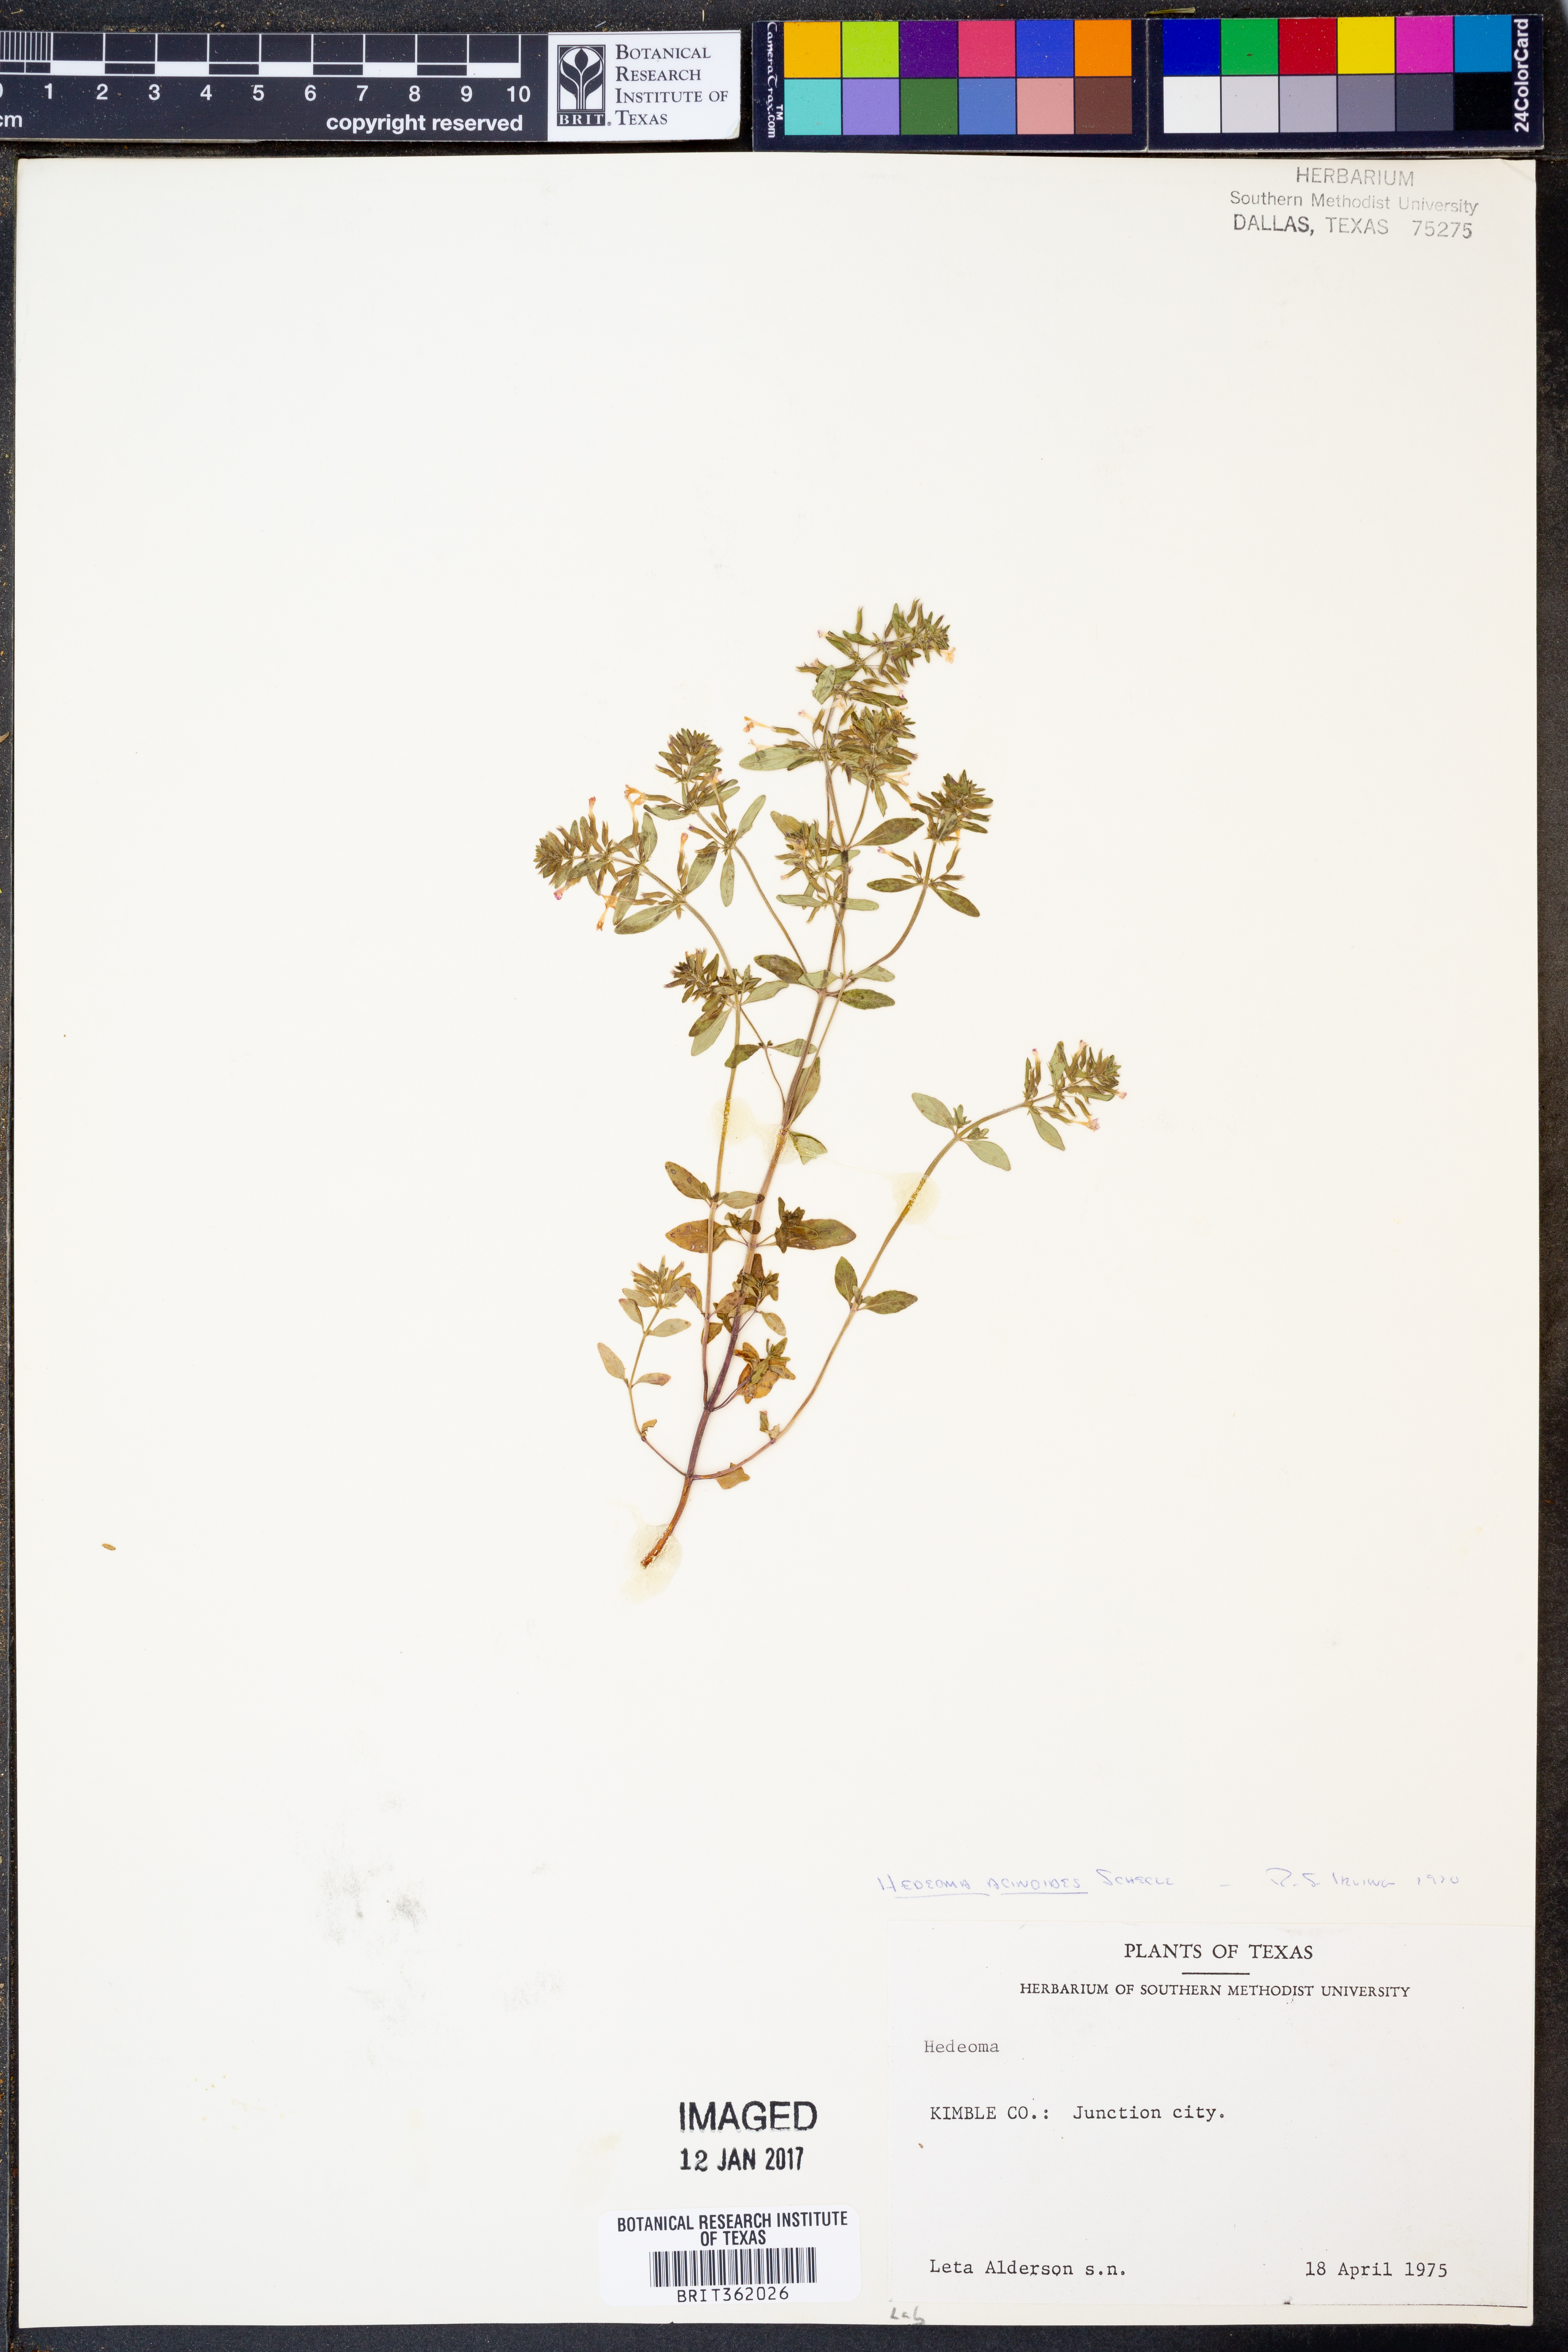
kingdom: Plantae
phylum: Tracheophyta
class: Magnoliopsida
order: Lamiales
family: Lamiaceae
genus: Hedeoma
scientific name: Hedeoma acinoides
